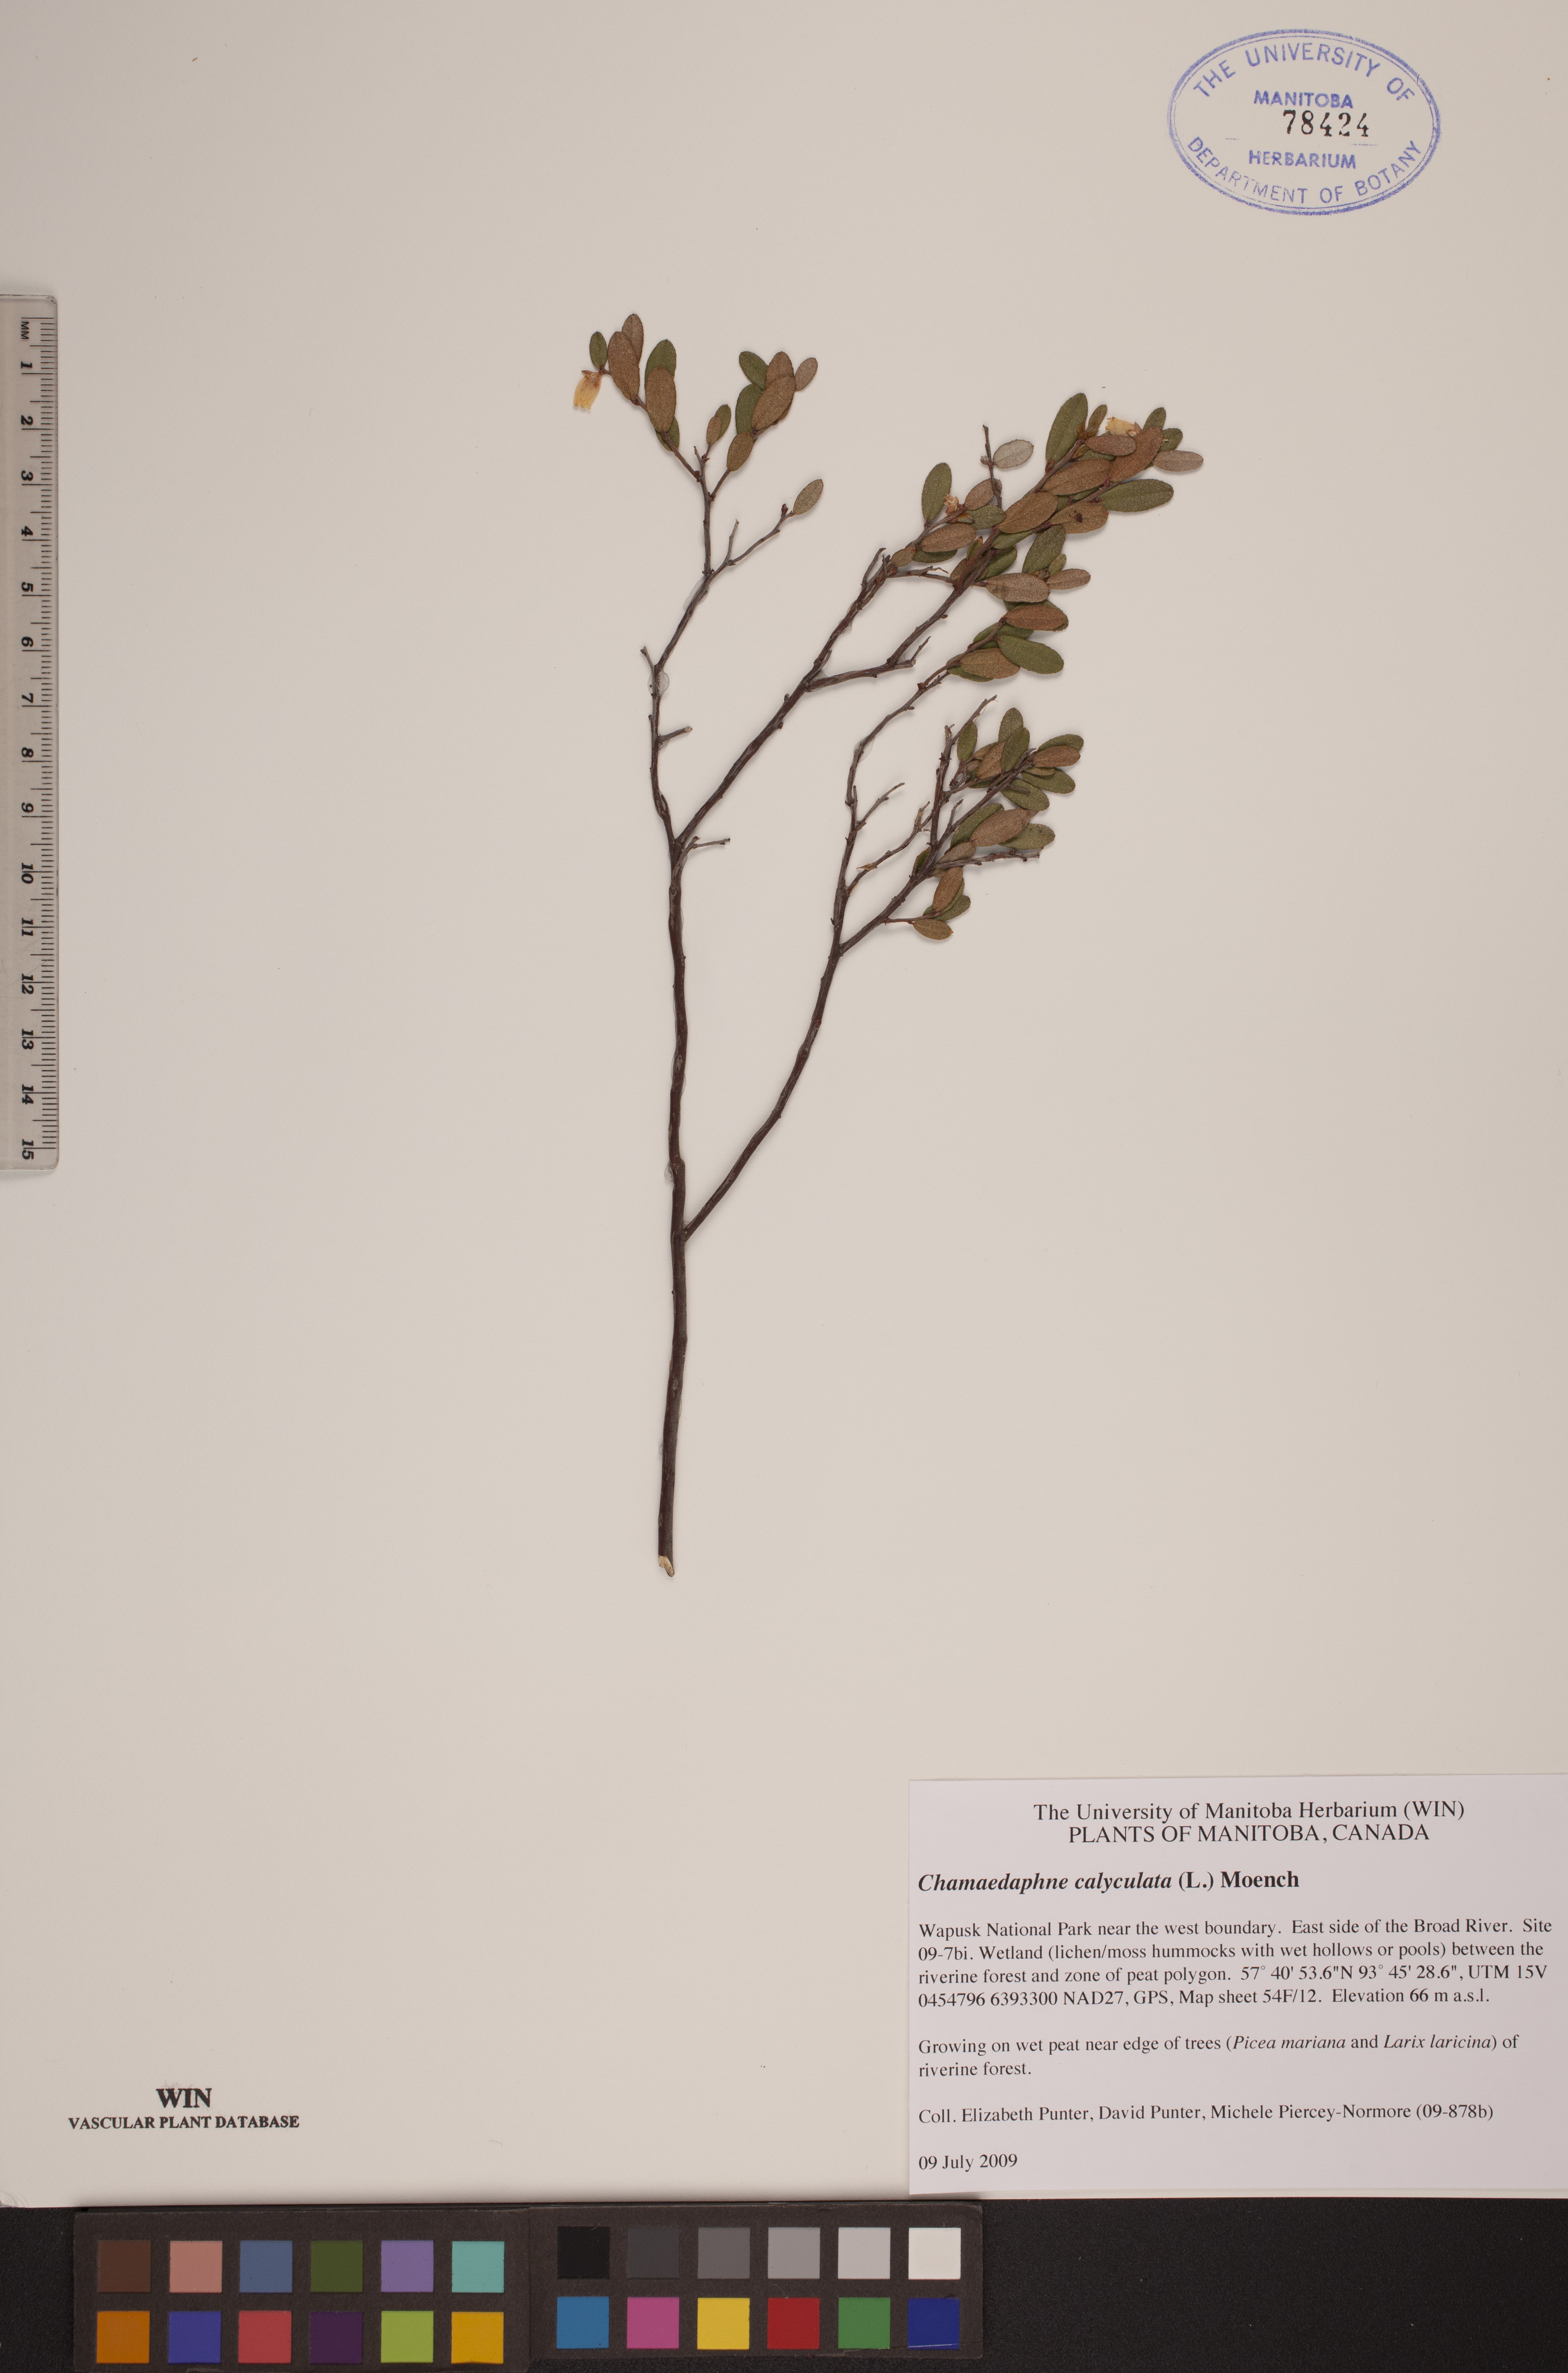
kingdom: Plantae
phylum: Tracheophyta
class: Magnoliopsida
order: Ericales
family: Ericaceae
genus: Chamaedaphne
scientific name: Chamaedaphne calyculata
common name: Leatherleaf
